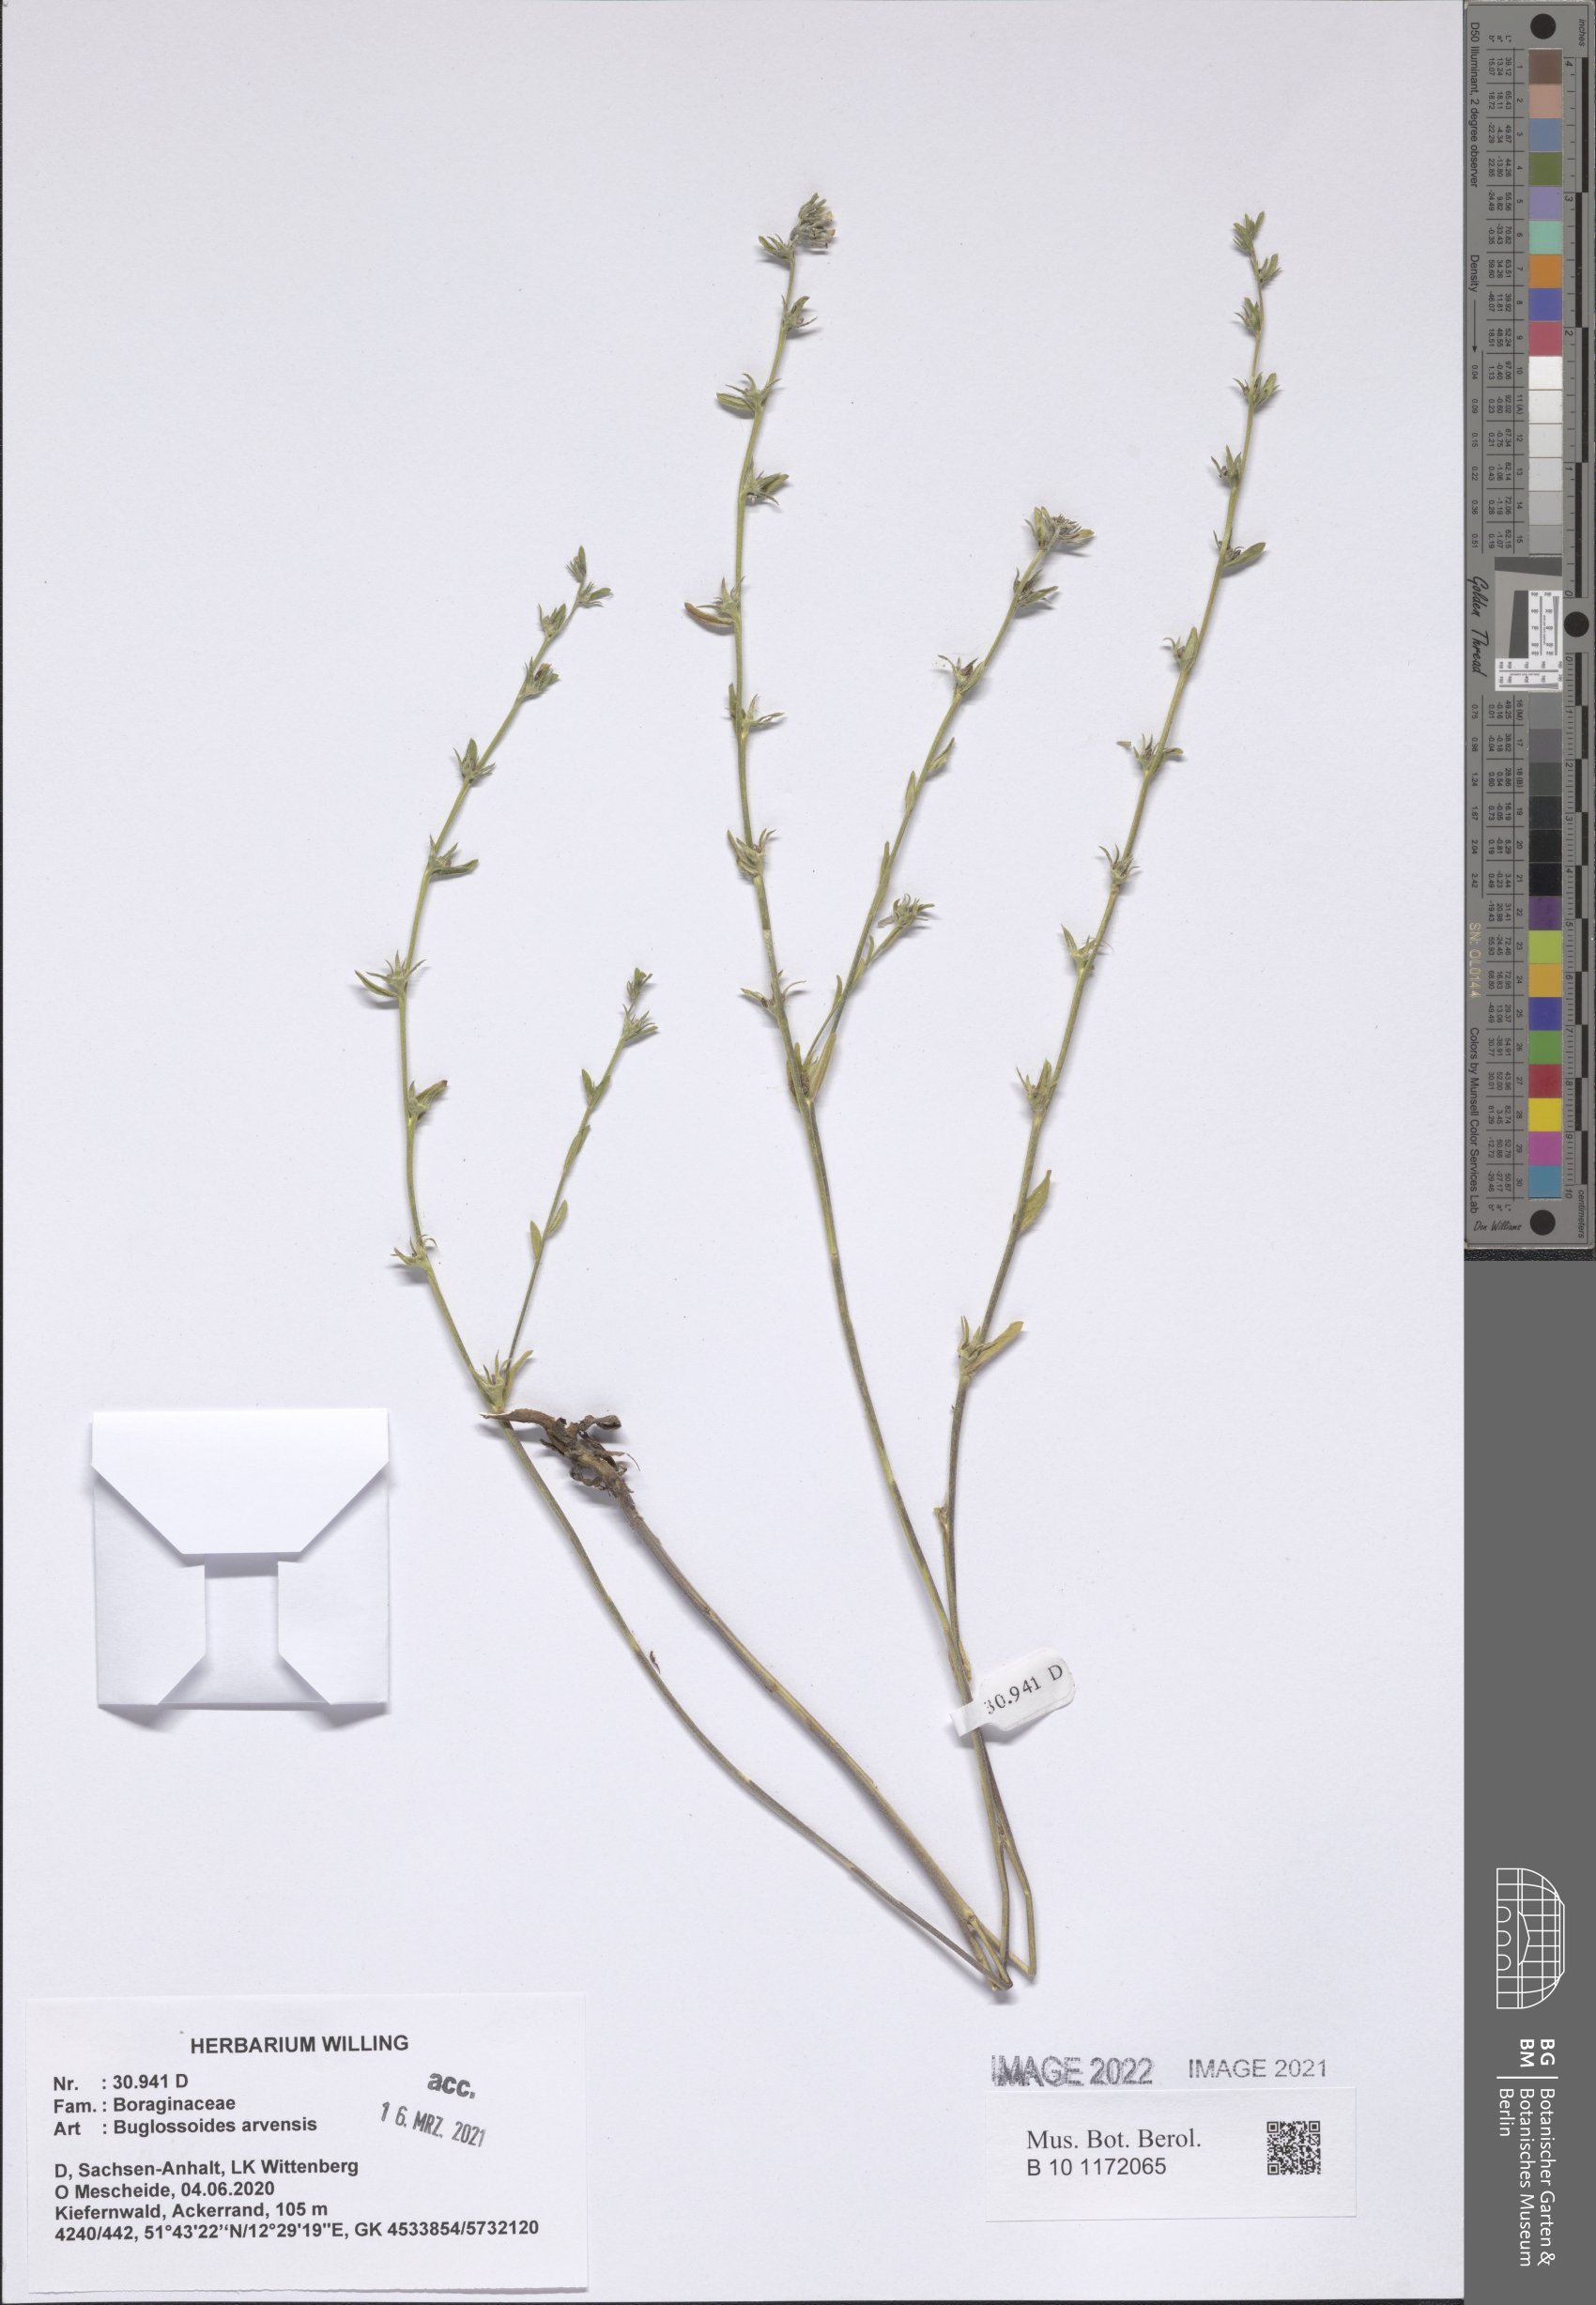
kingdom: Plantae
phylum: Tracheophyta
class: Magnoliopsida
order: Boraginales
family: Boraginaceae
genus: Buglossoides
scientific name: Buglossoides arvensis
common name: Corn gromwell
